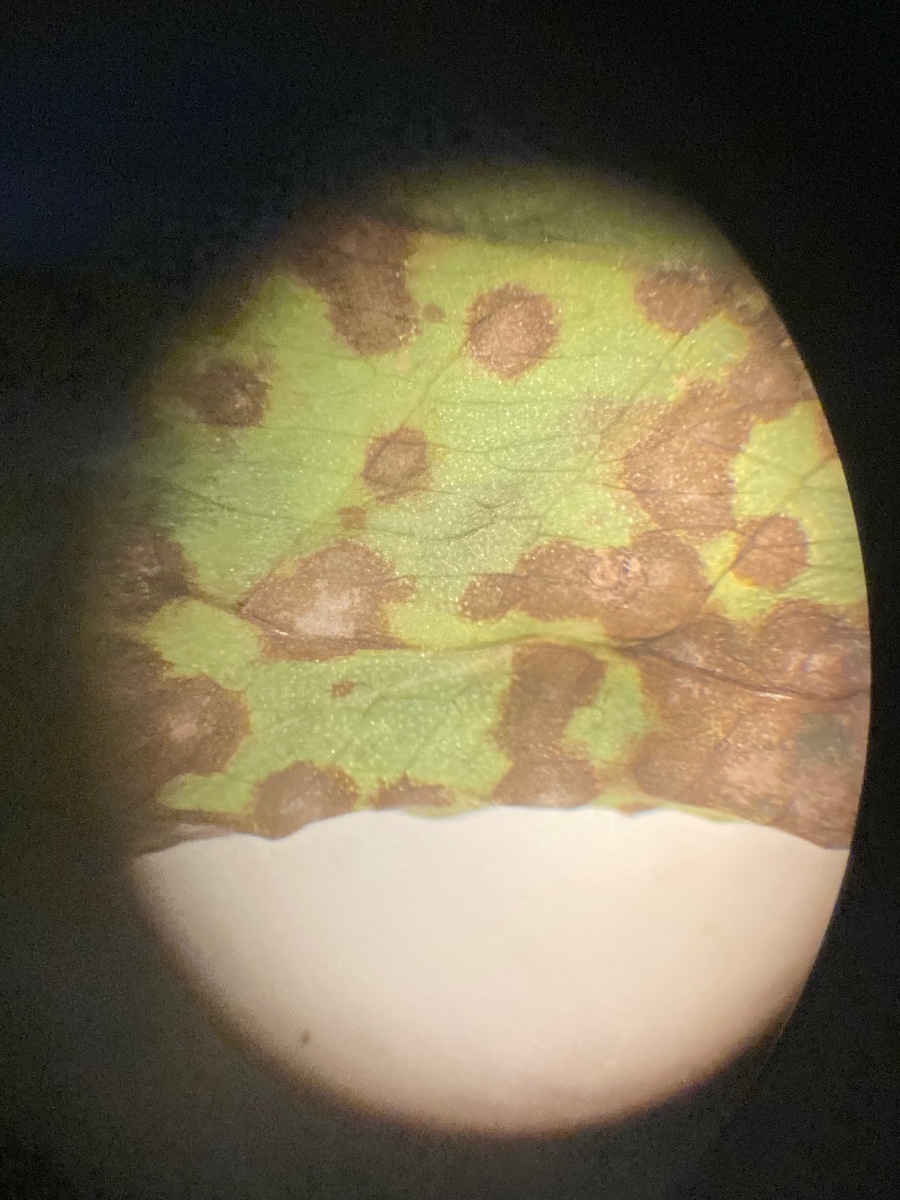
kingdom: Fungi
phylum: Ascomycota
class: Sordariomycetes
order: Glomerellales
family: Plectosphaerellaceae
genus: Plectosphaerella
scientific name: Plectosphaerella alismatis
